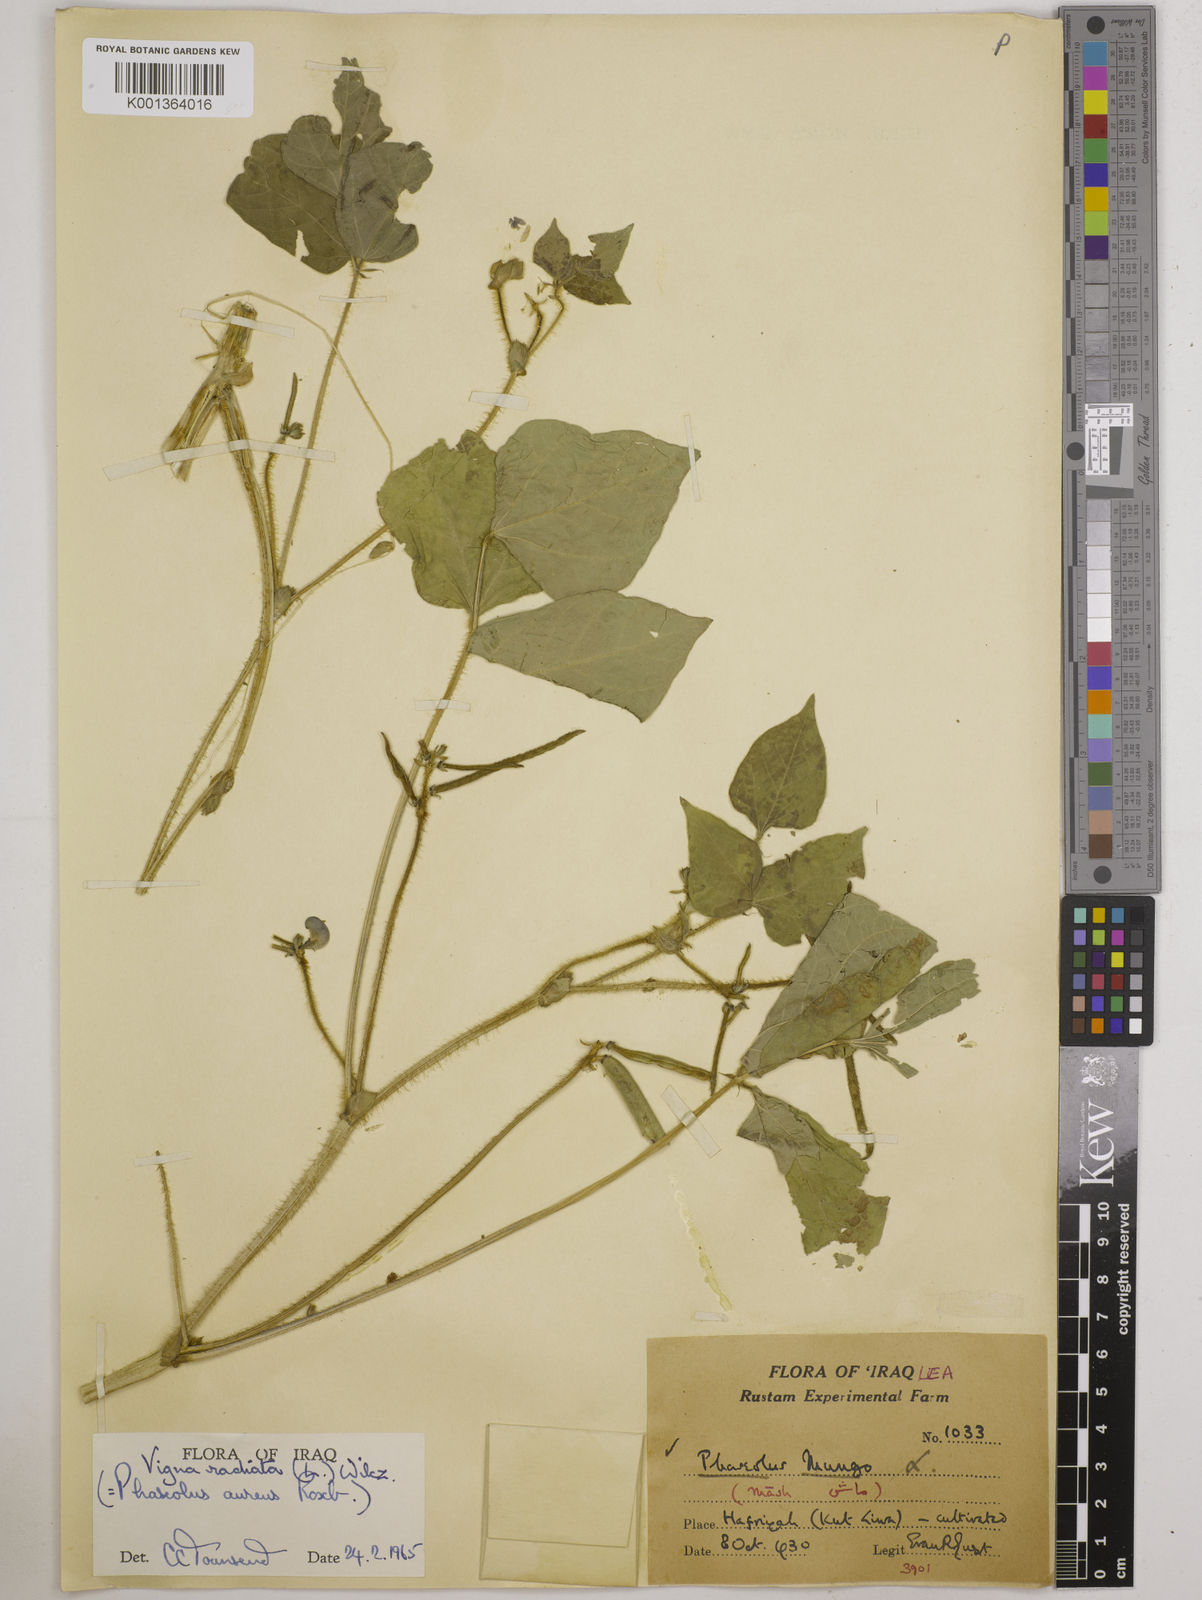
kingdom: Plantae
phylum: Tracheophyta
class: Magnoliopsida
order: Fabales
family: Fabaceae
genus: Vigna
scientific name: Vigna radiata
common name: Mung-bean
